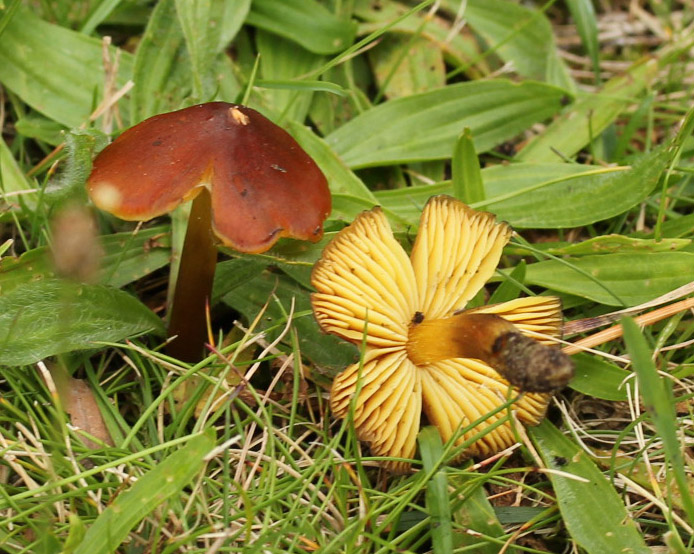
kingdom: Fungi
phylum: Basidiomycota
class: Agaricomycetes
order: Agaricales
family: Hygrophoraceae
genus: Hygrocybe
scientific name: Hygrocybe conica
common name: kegle-vokshat
